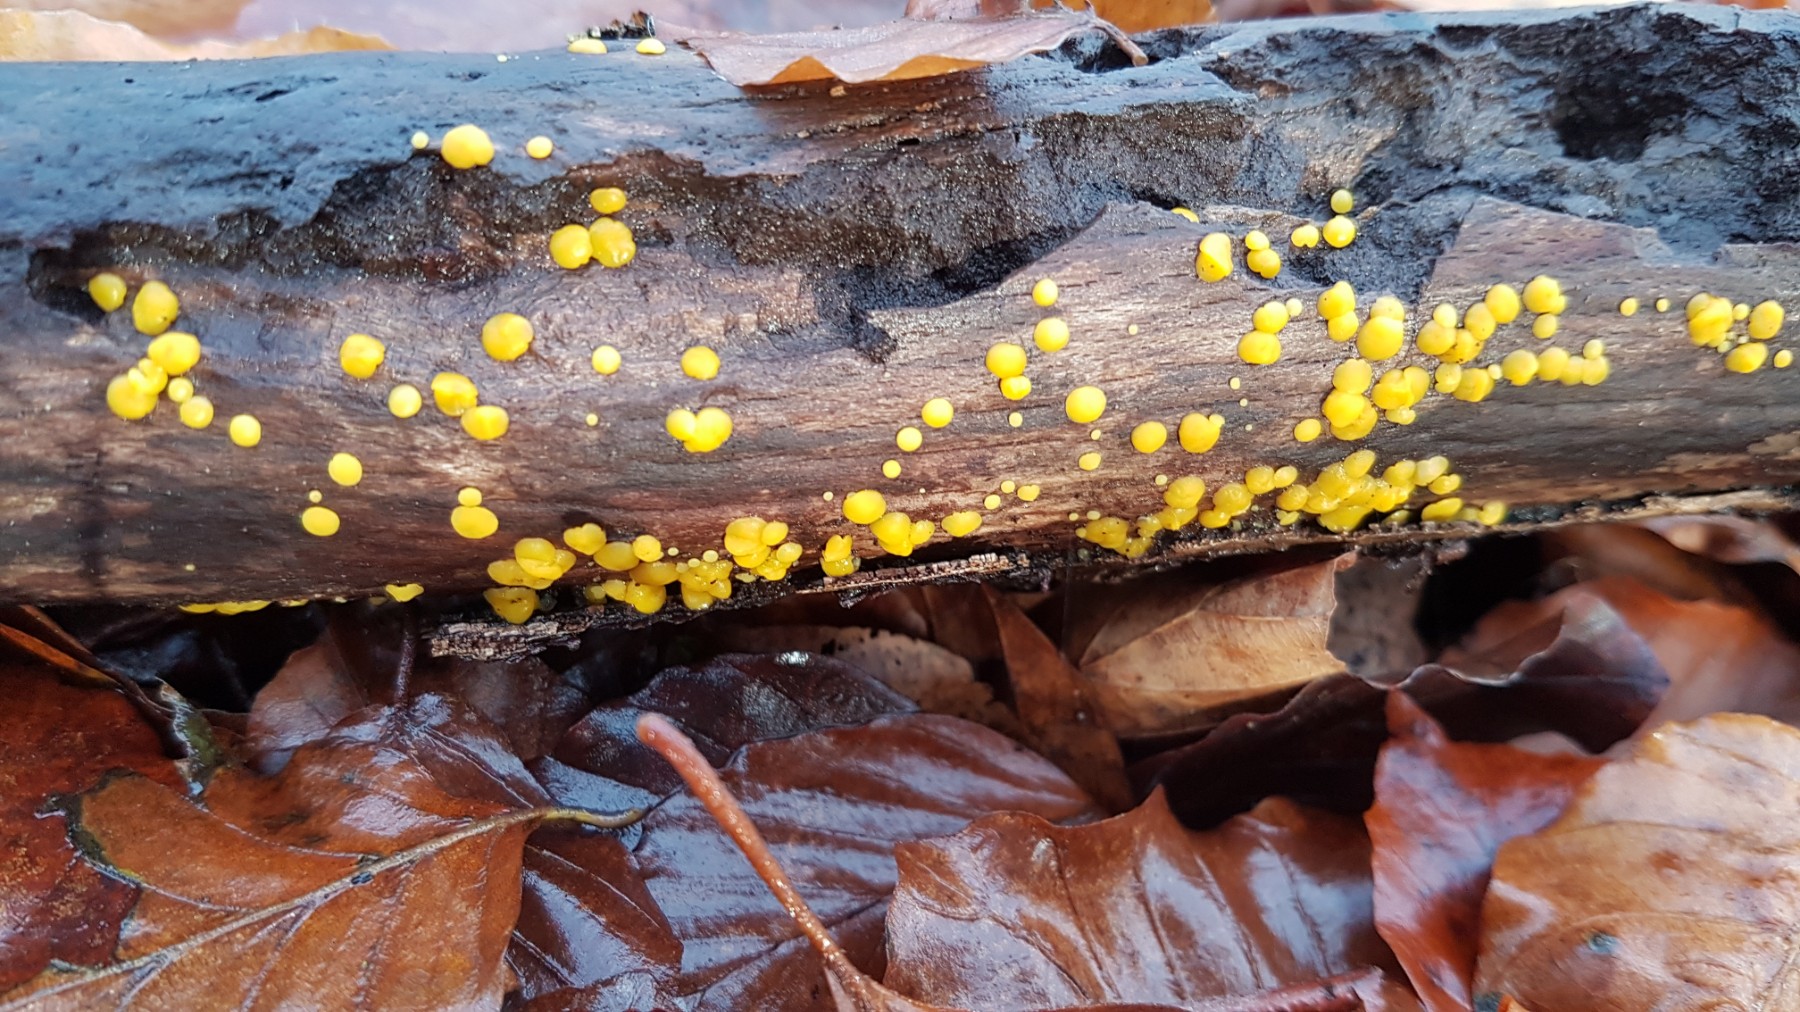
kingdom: Fungi
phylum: Ascomycota
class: Leotiomycetes
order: Helotiales
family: Pezizellaceae
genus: Calycina
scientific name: Calycina citrina
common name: almindelig gulskive
